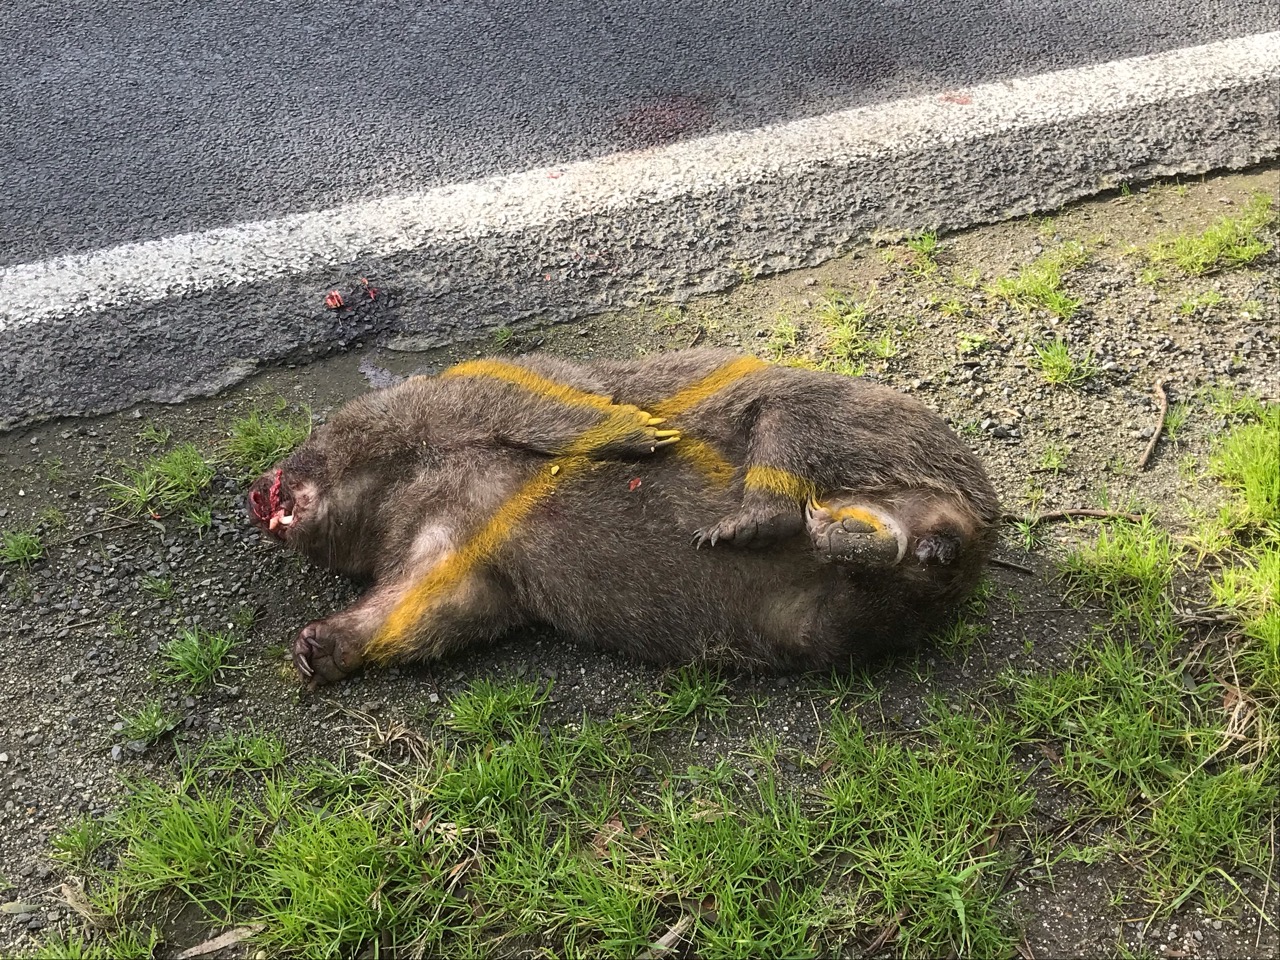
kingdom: Animalia
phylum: Chordata
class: Mammalia
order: Diprotodontia
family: Vombatidae
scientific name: Vombatidae
